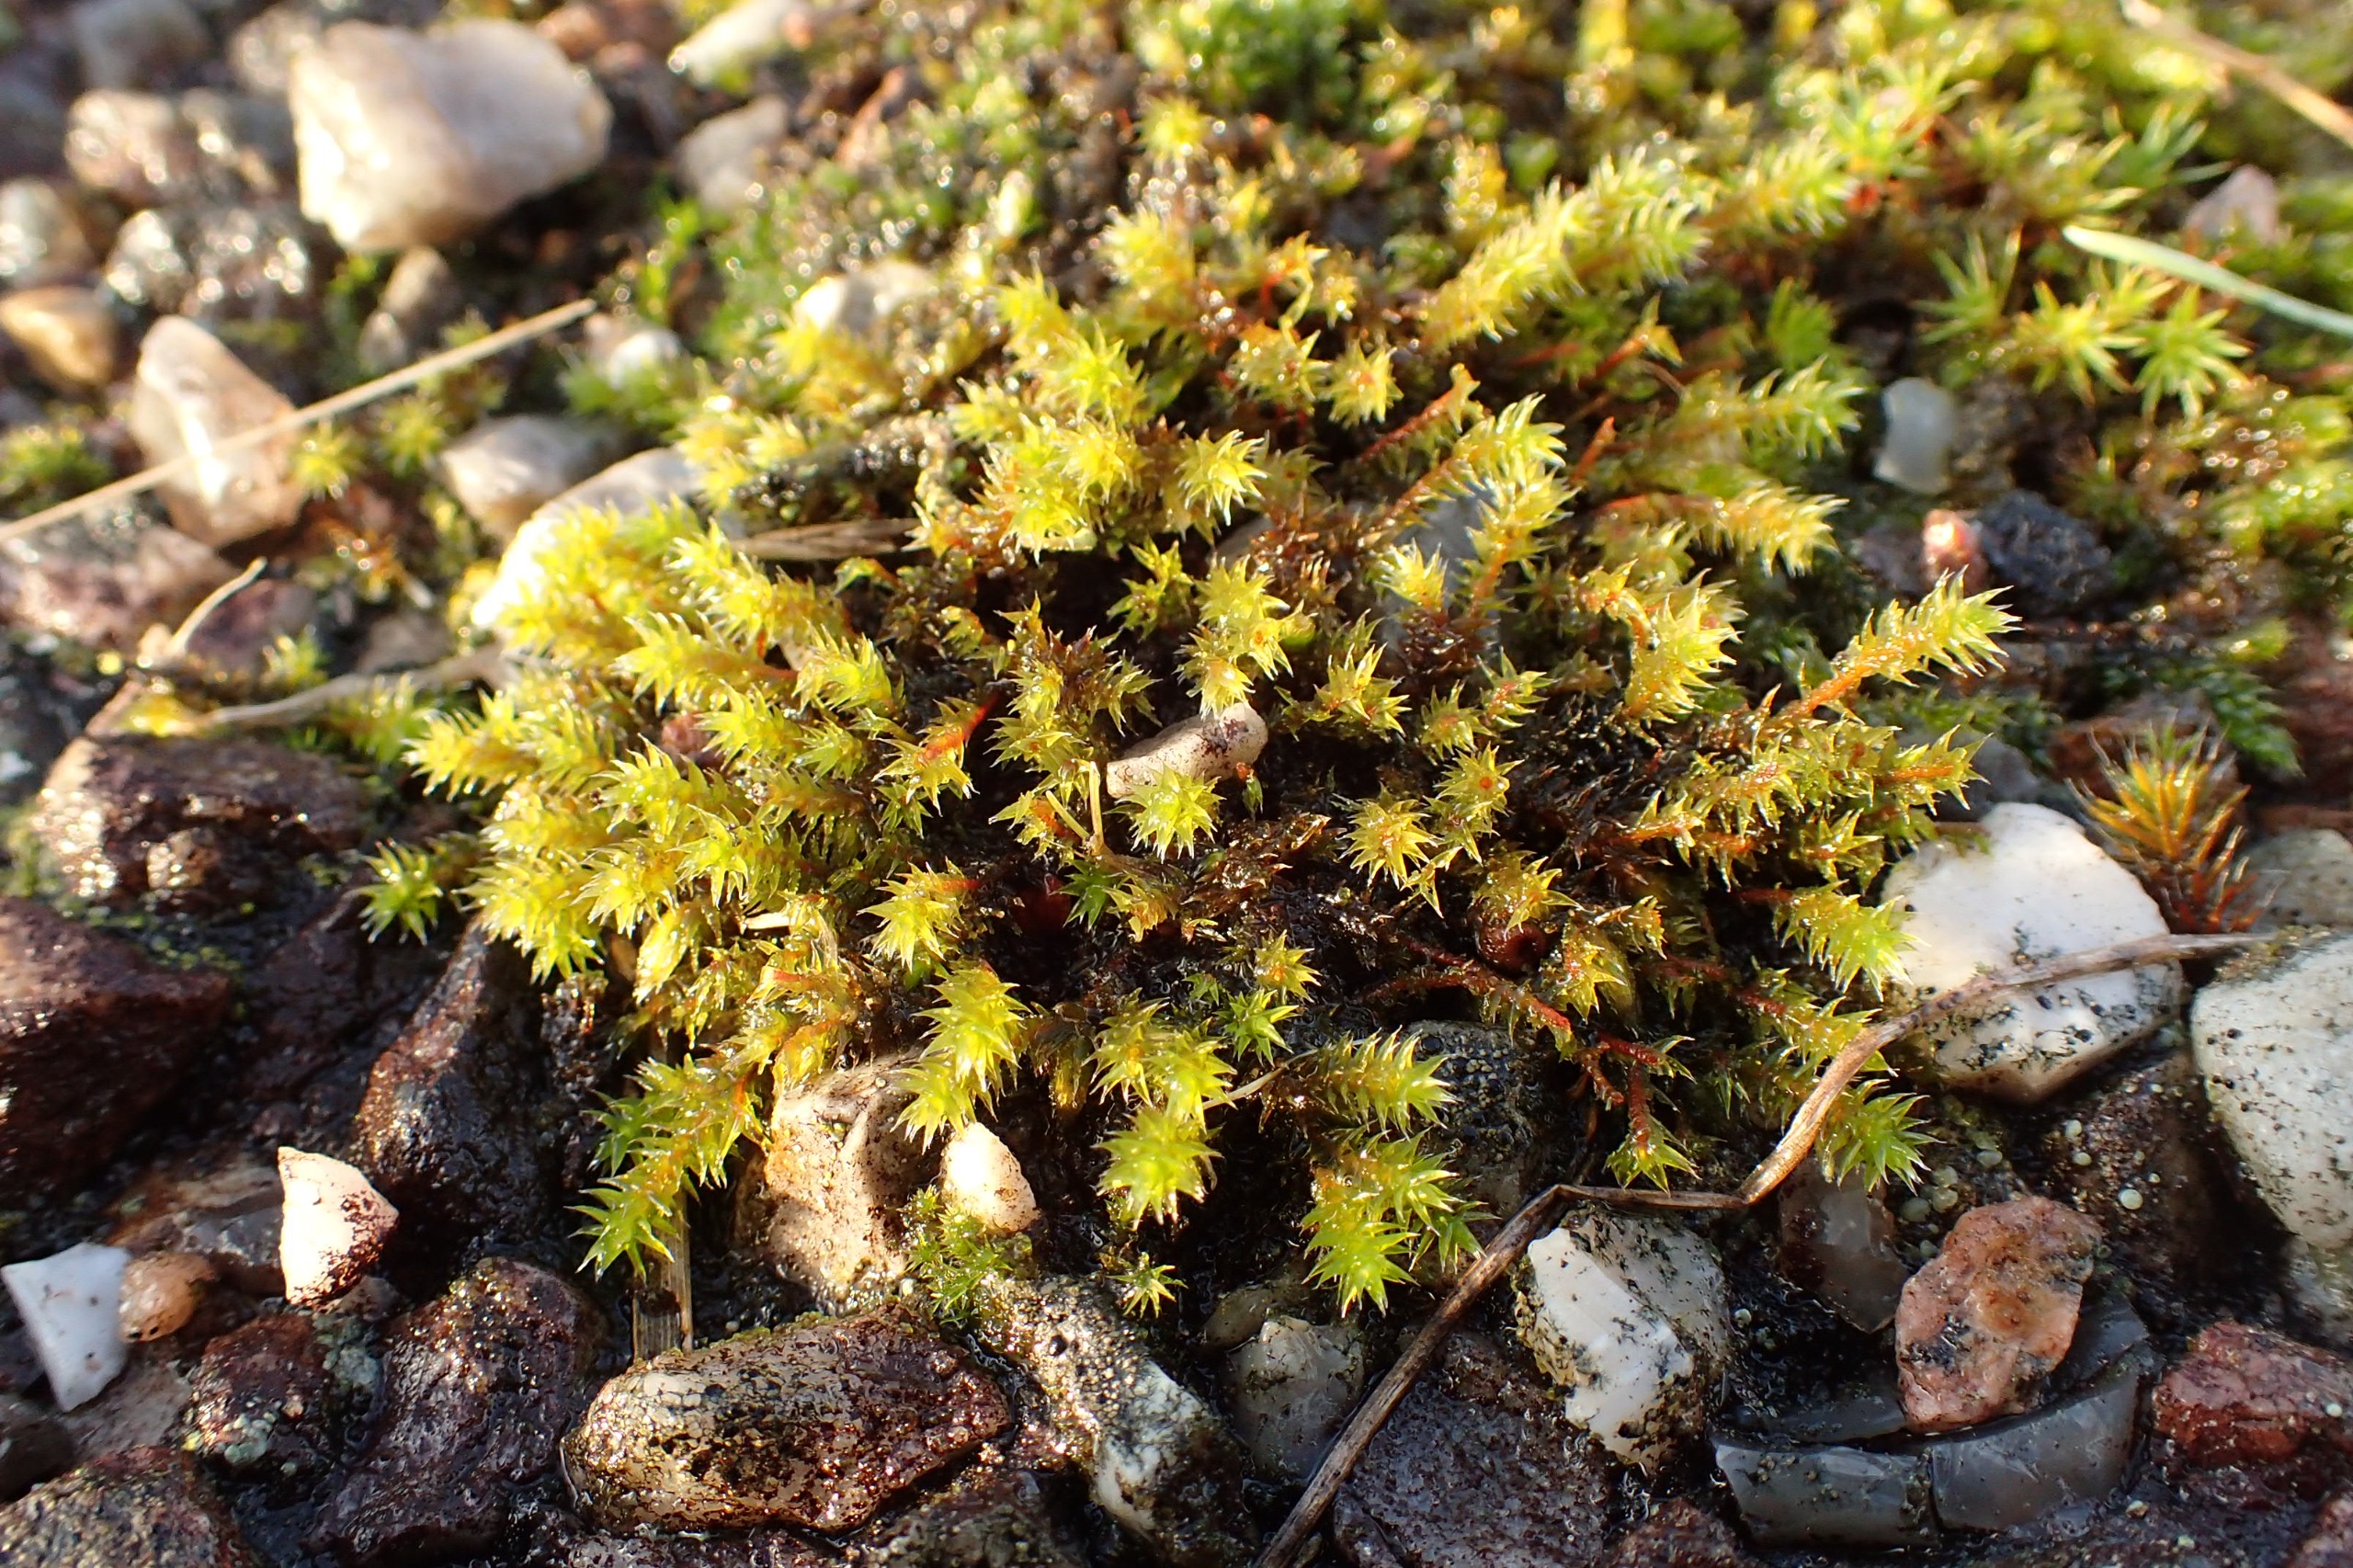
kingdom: Plantae
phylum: Bryophyta
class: Bryopsida
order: Hedwigiales
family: Hedwigiaceae
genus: Hedwigia
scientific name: Hedwigia ciliata
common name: Hvidspidset hedwigia
